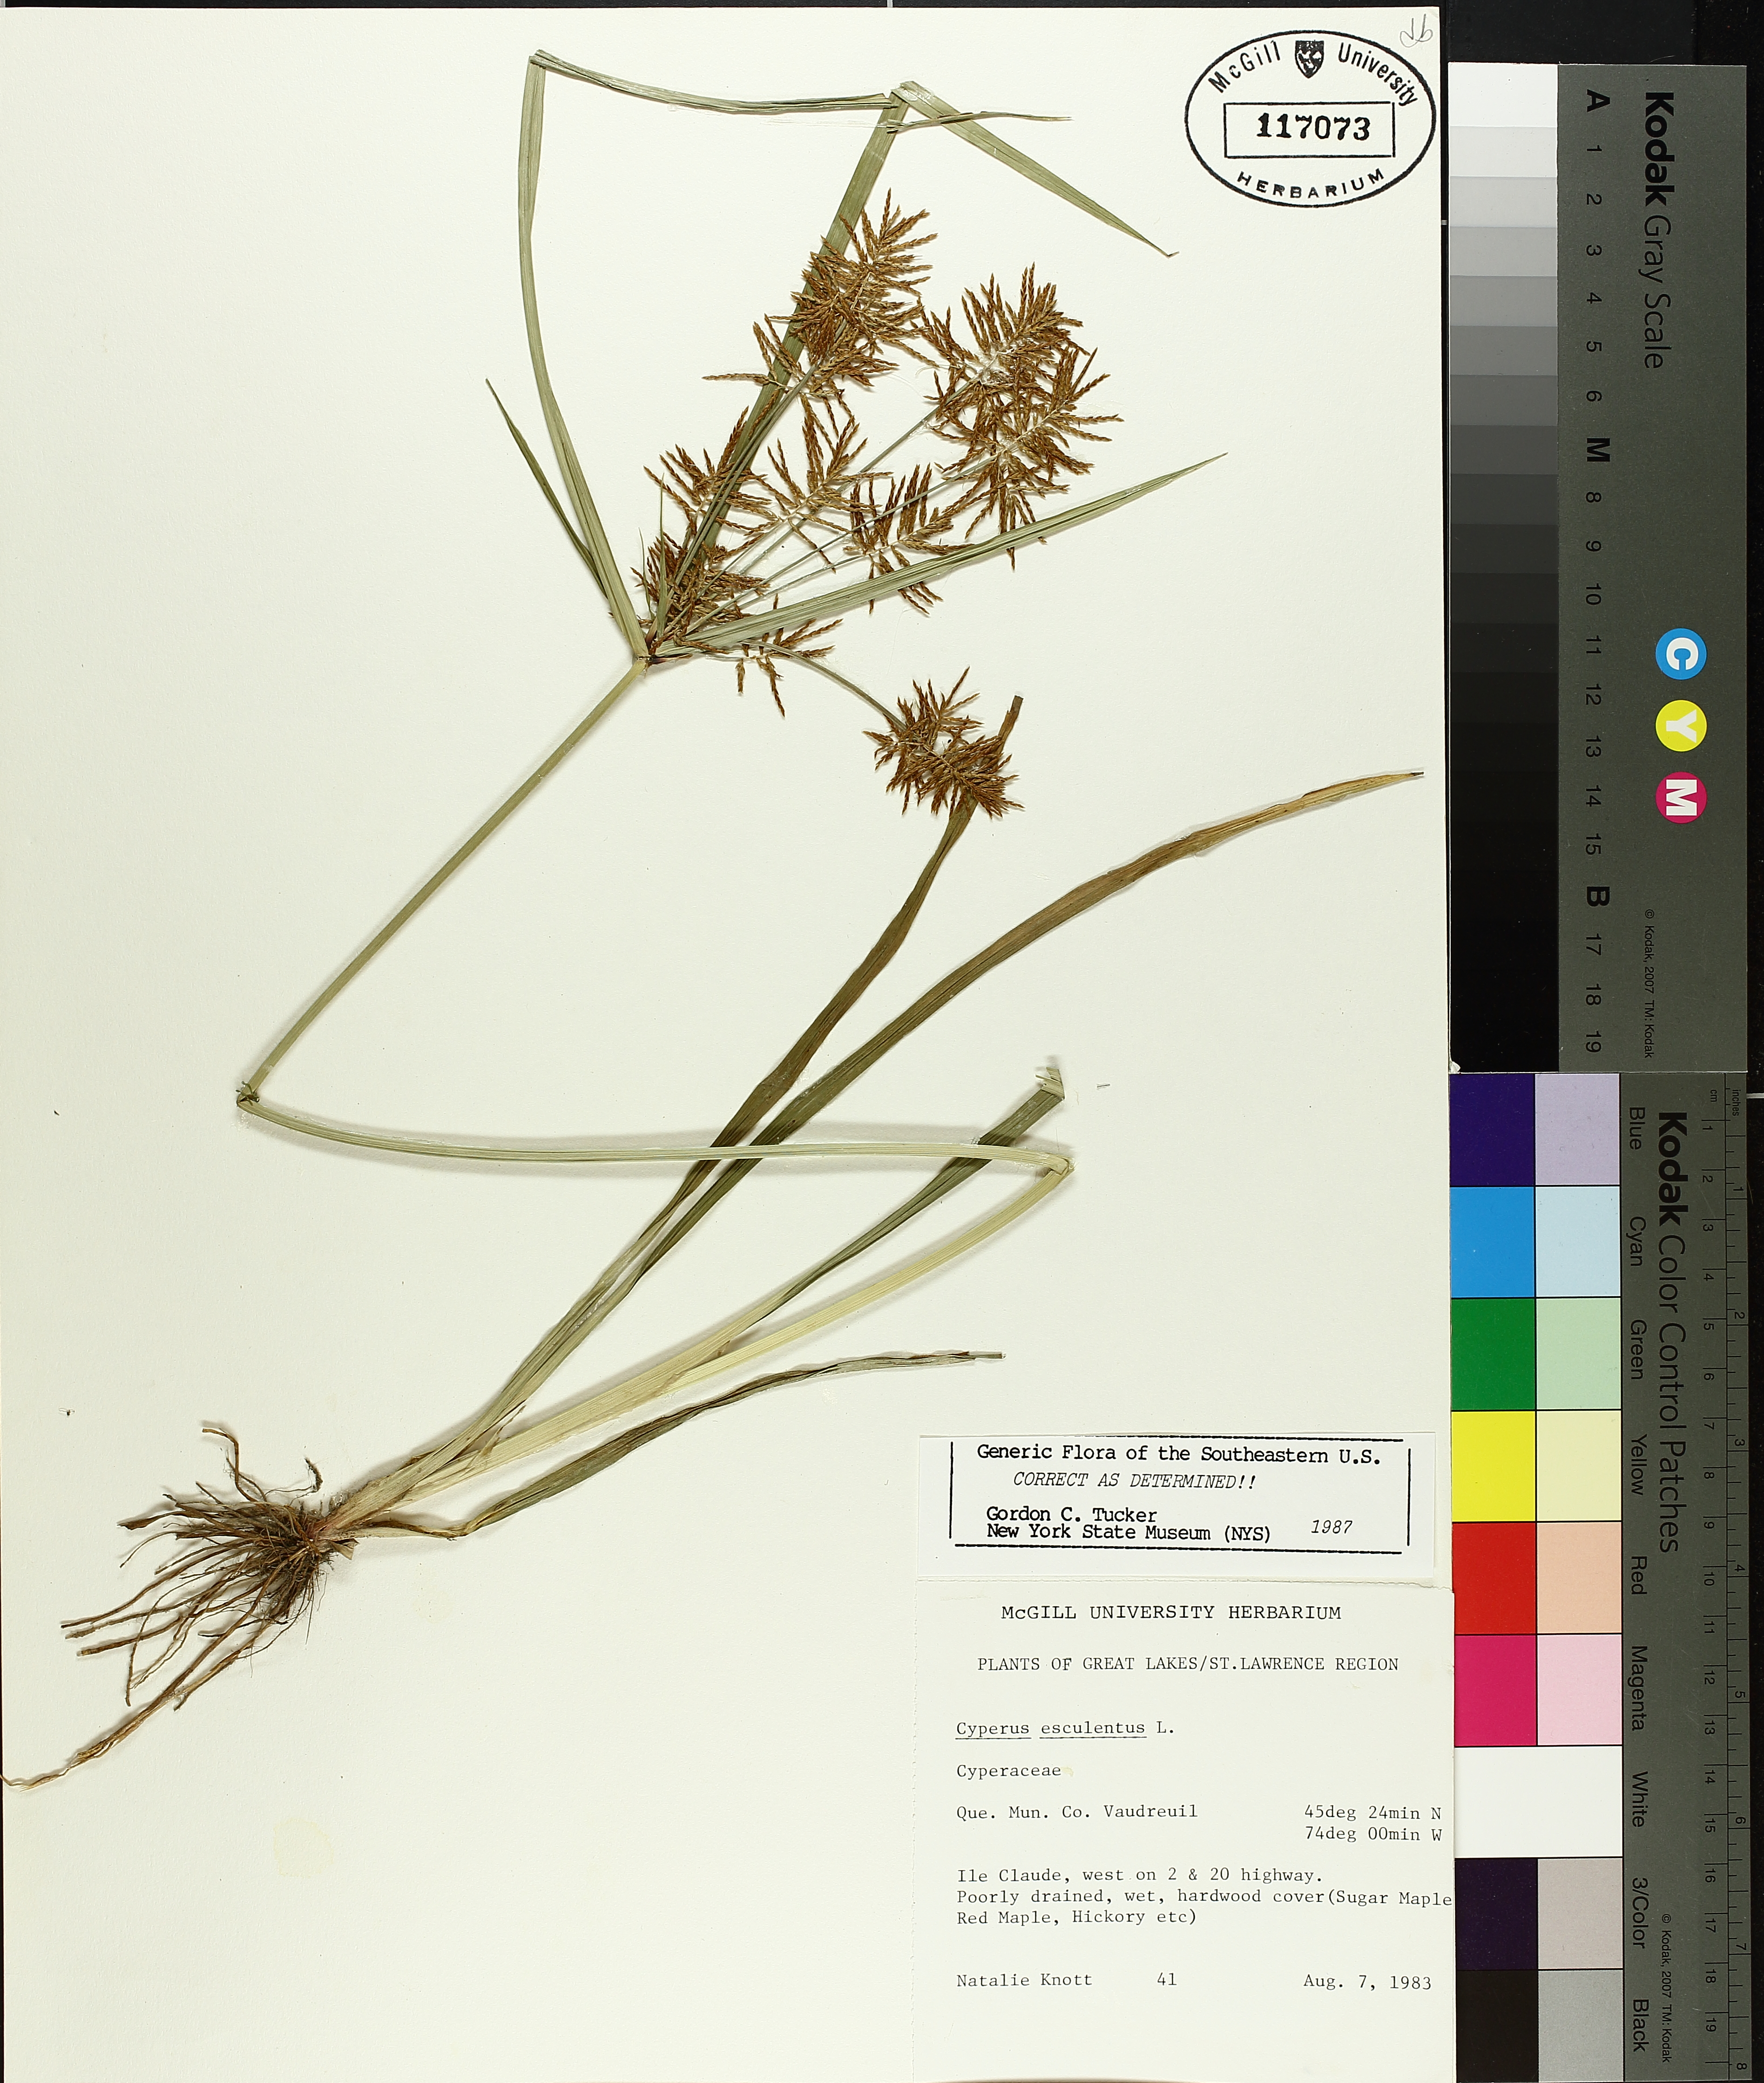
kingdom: Plantae
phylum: Tracheophyta
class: Liliopsida
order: Poales
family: Cyperaceae
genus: Cyperus
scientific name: Cyperus esculentus
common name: Yellow nutsedge
